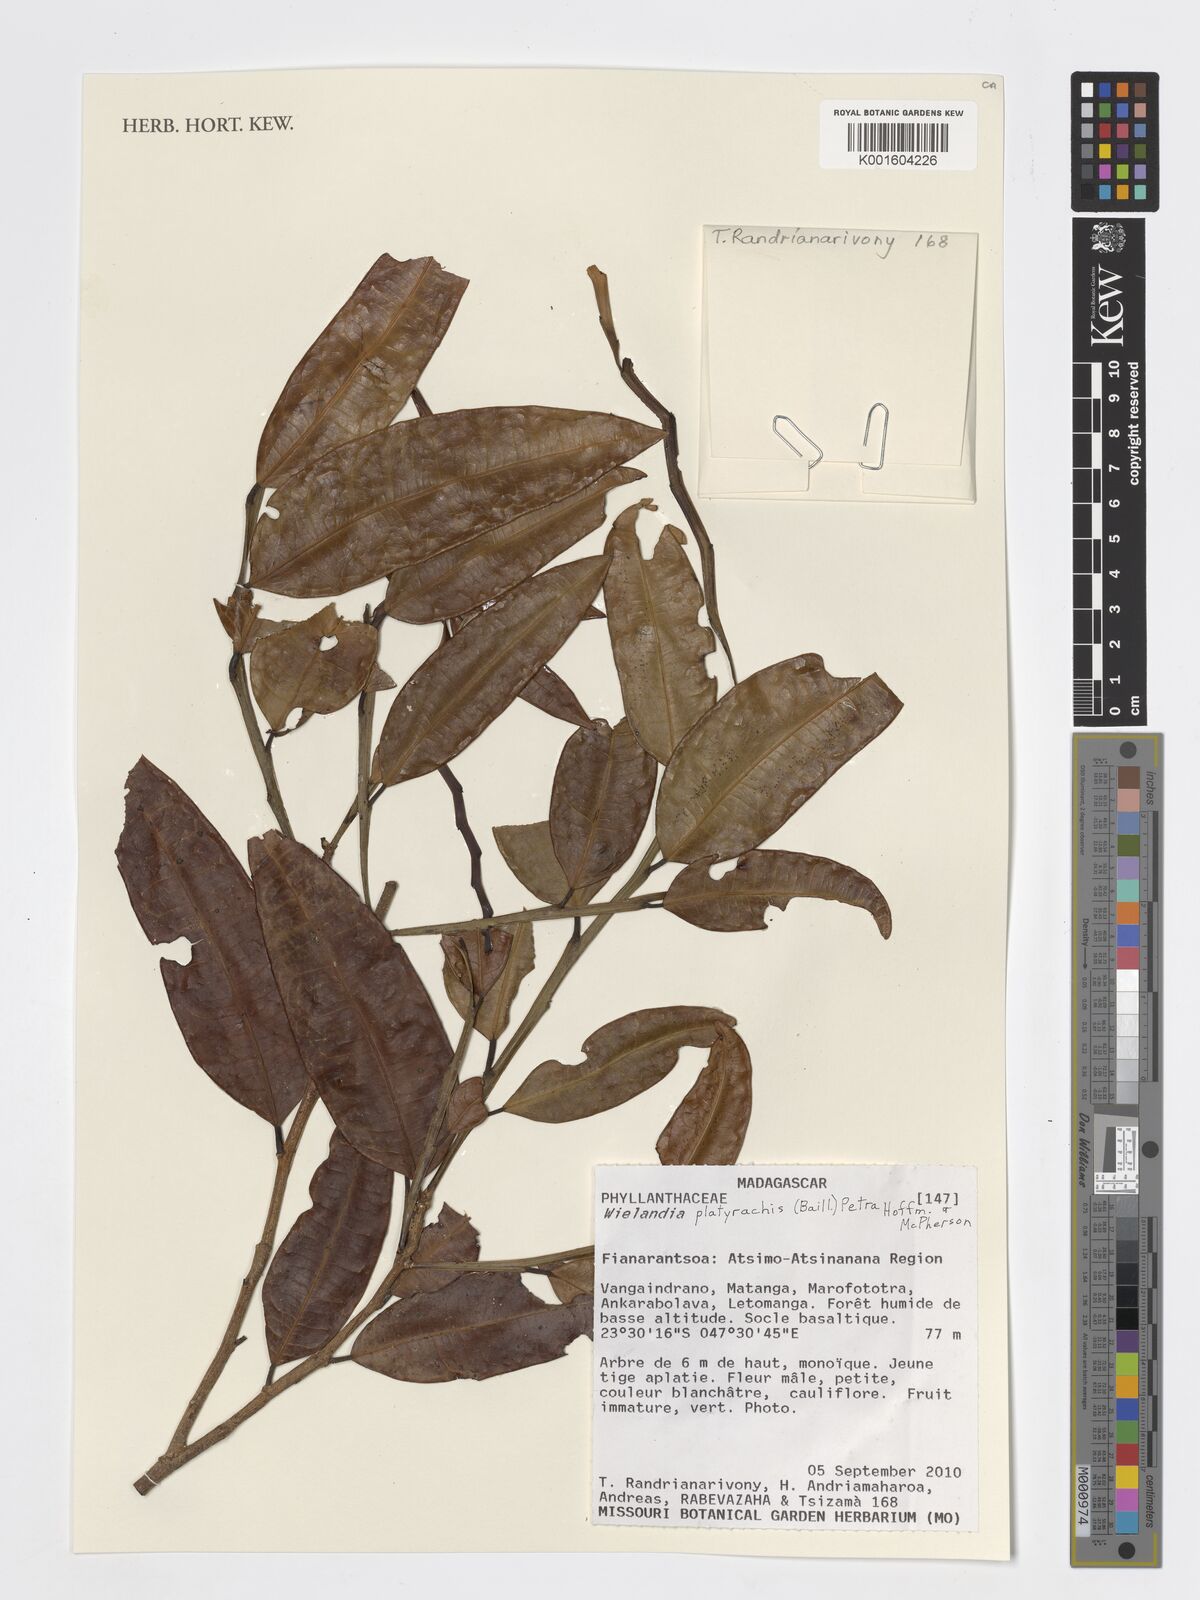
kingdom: Plantae
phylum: Tracheophyta
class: Magnoliopsida
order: Malpighiales
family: Phyllanthaceae
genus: Wielandia
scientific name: Wielandia platyrachis
